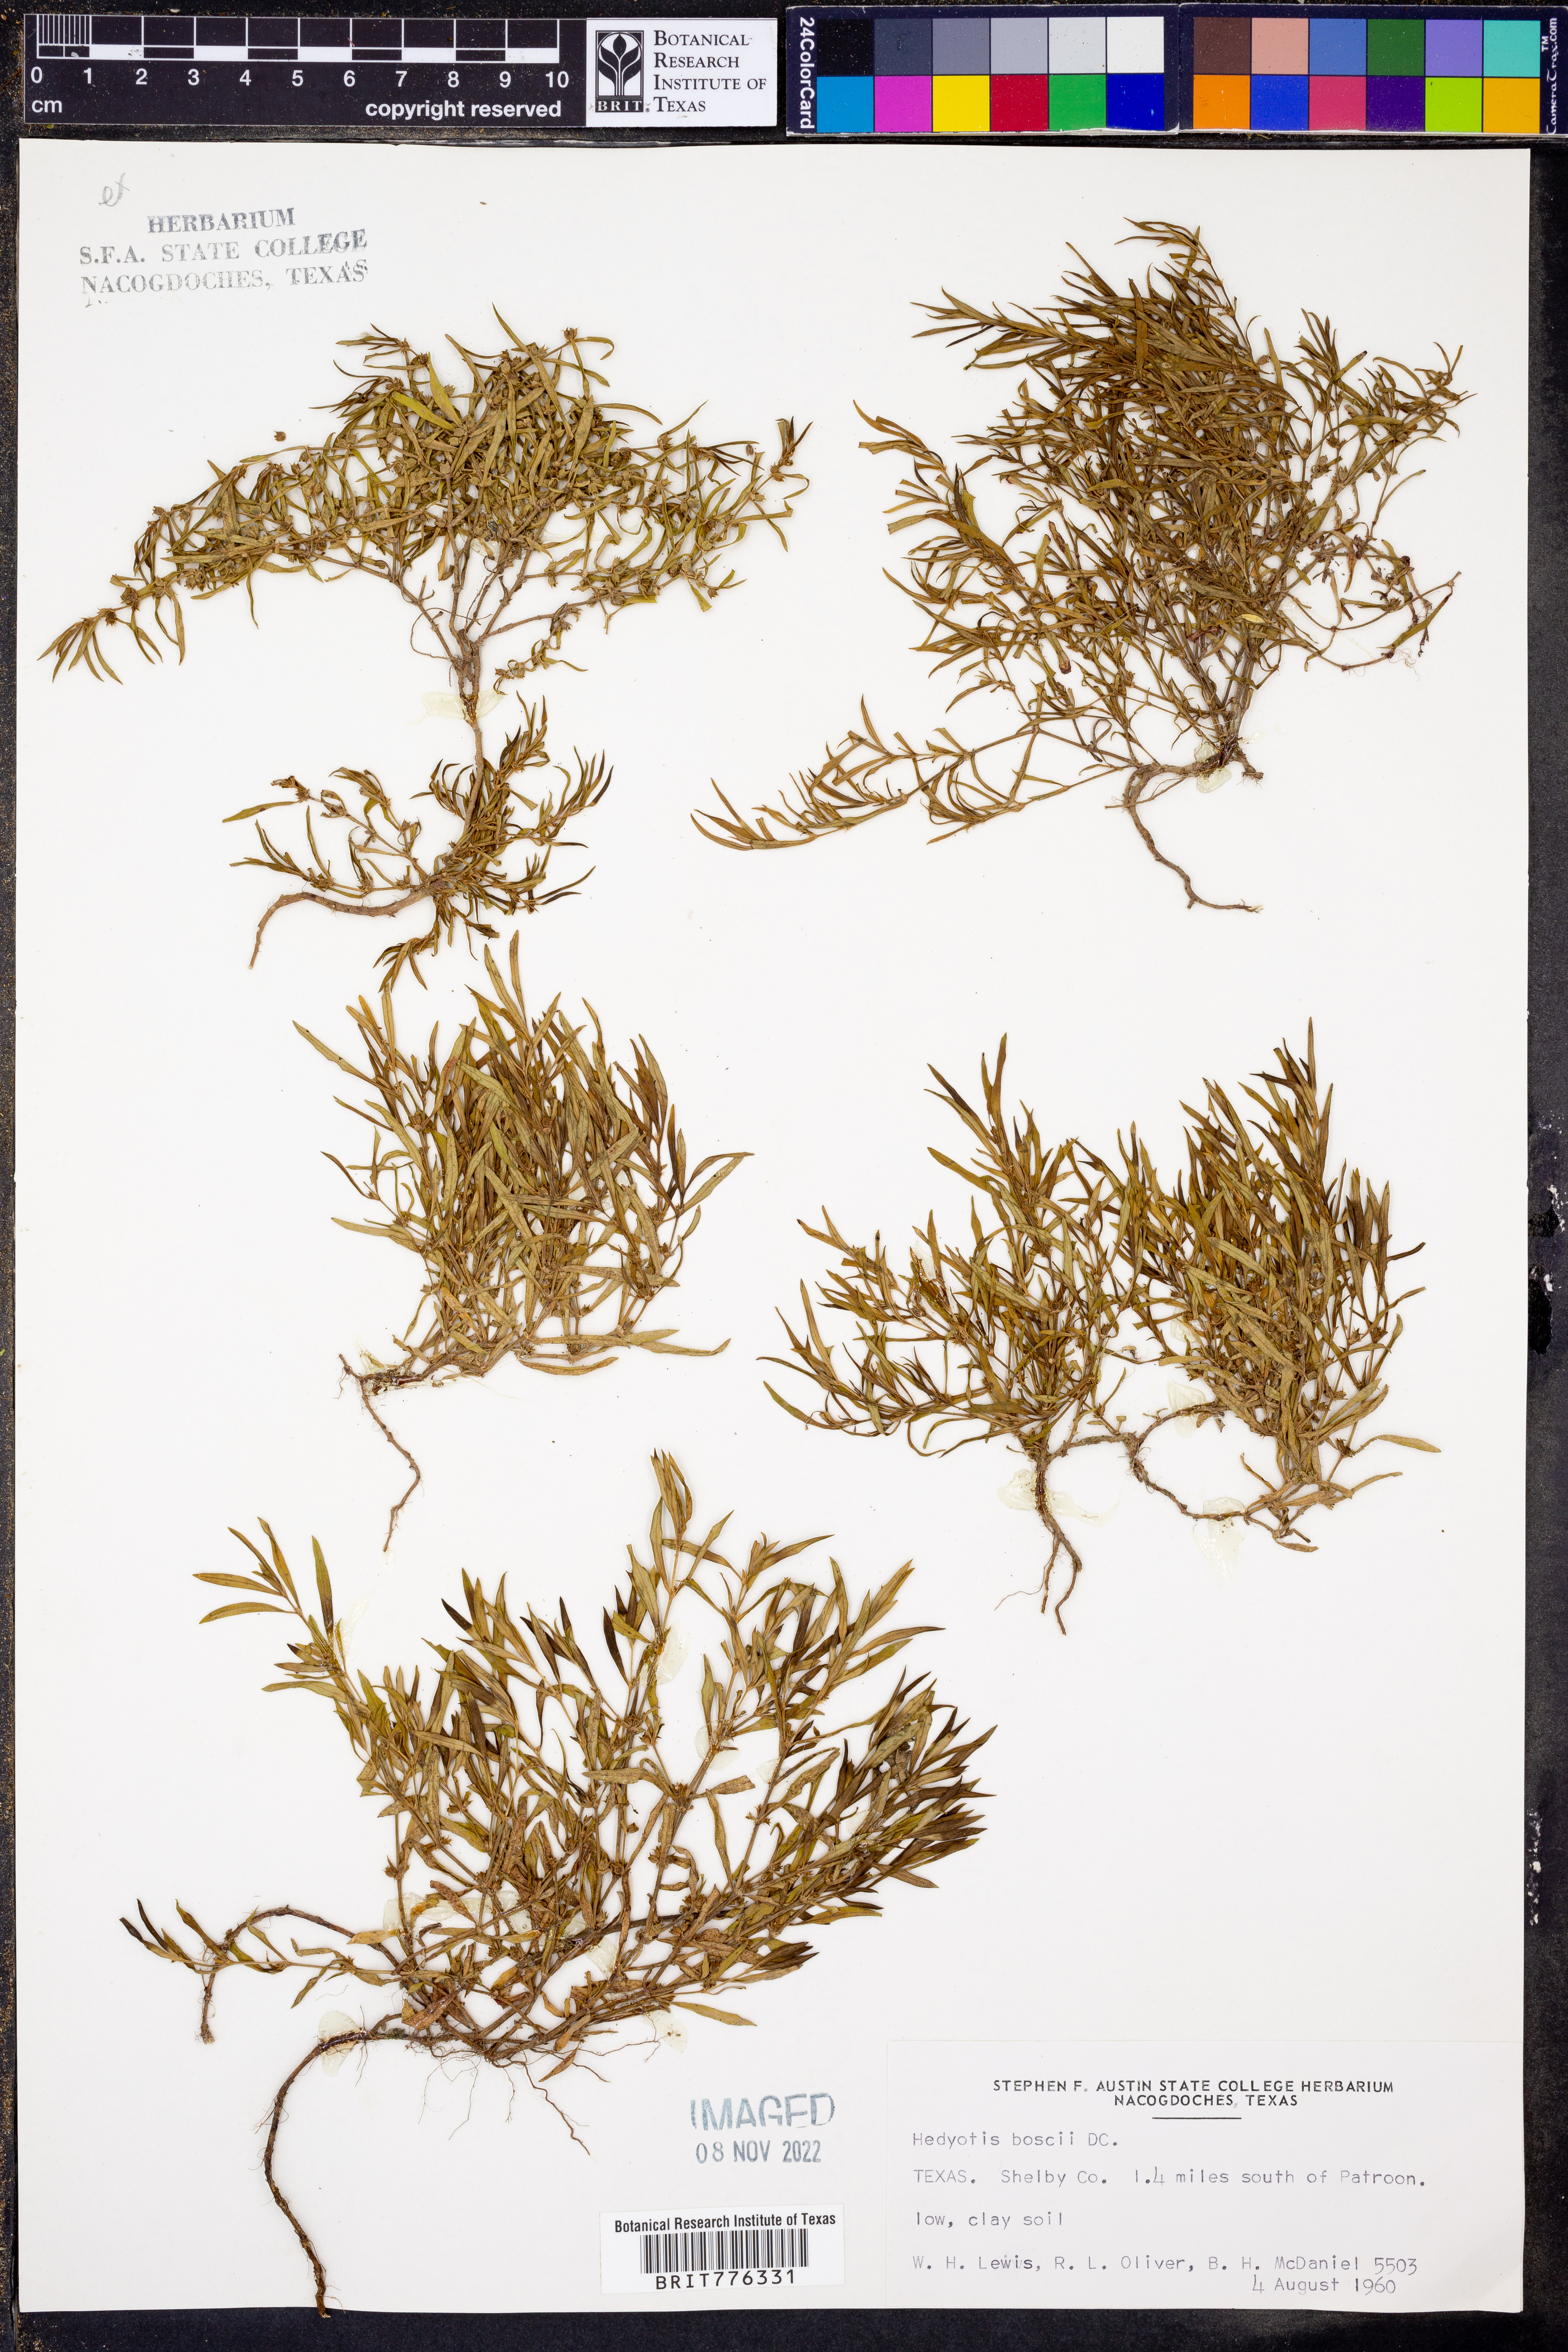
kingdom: Plantae
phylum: Tracheophyta
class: Magnoliopsida
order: Gentianales
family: Rubiaceae
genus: Oldenlandia
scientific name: Oldenlandia boscii
